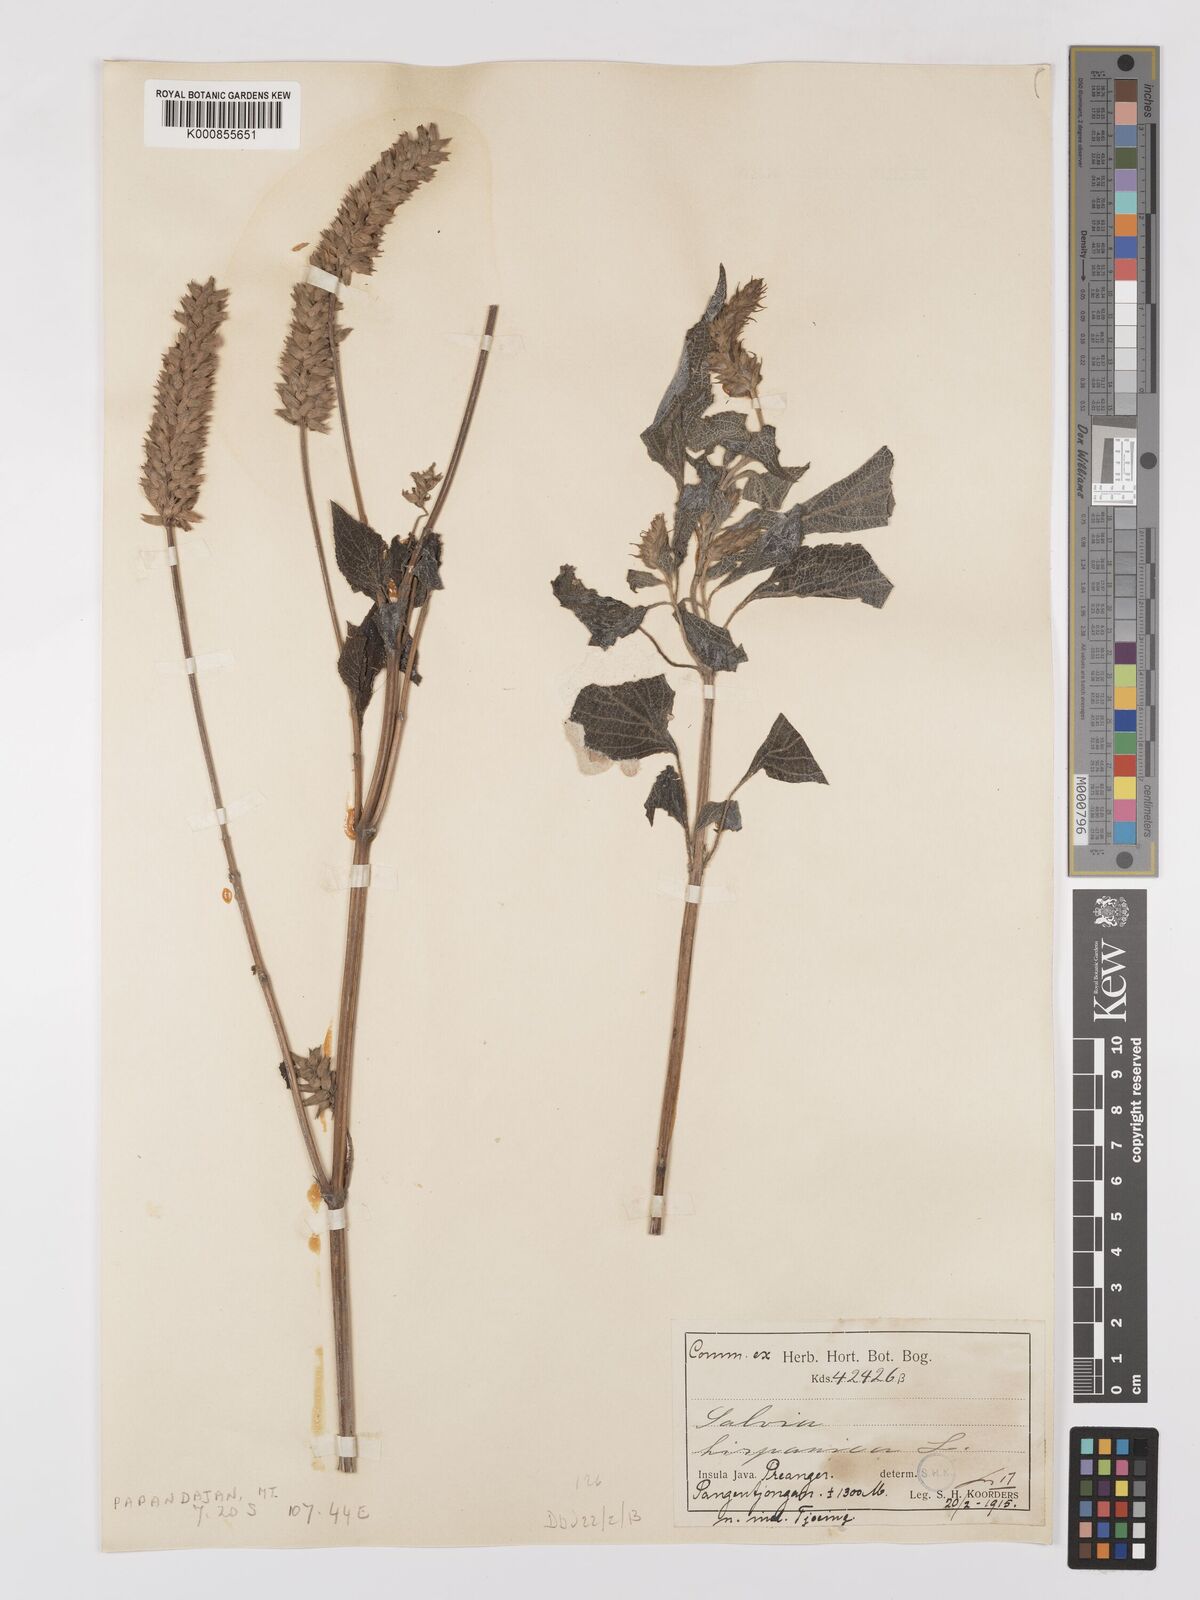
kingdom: Plantae
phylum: Tracheophyta
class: Magnoliopsida
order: Lamiales
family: Lamiaceae
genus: Salvia
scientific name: Salvia hispanica
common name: Chia
